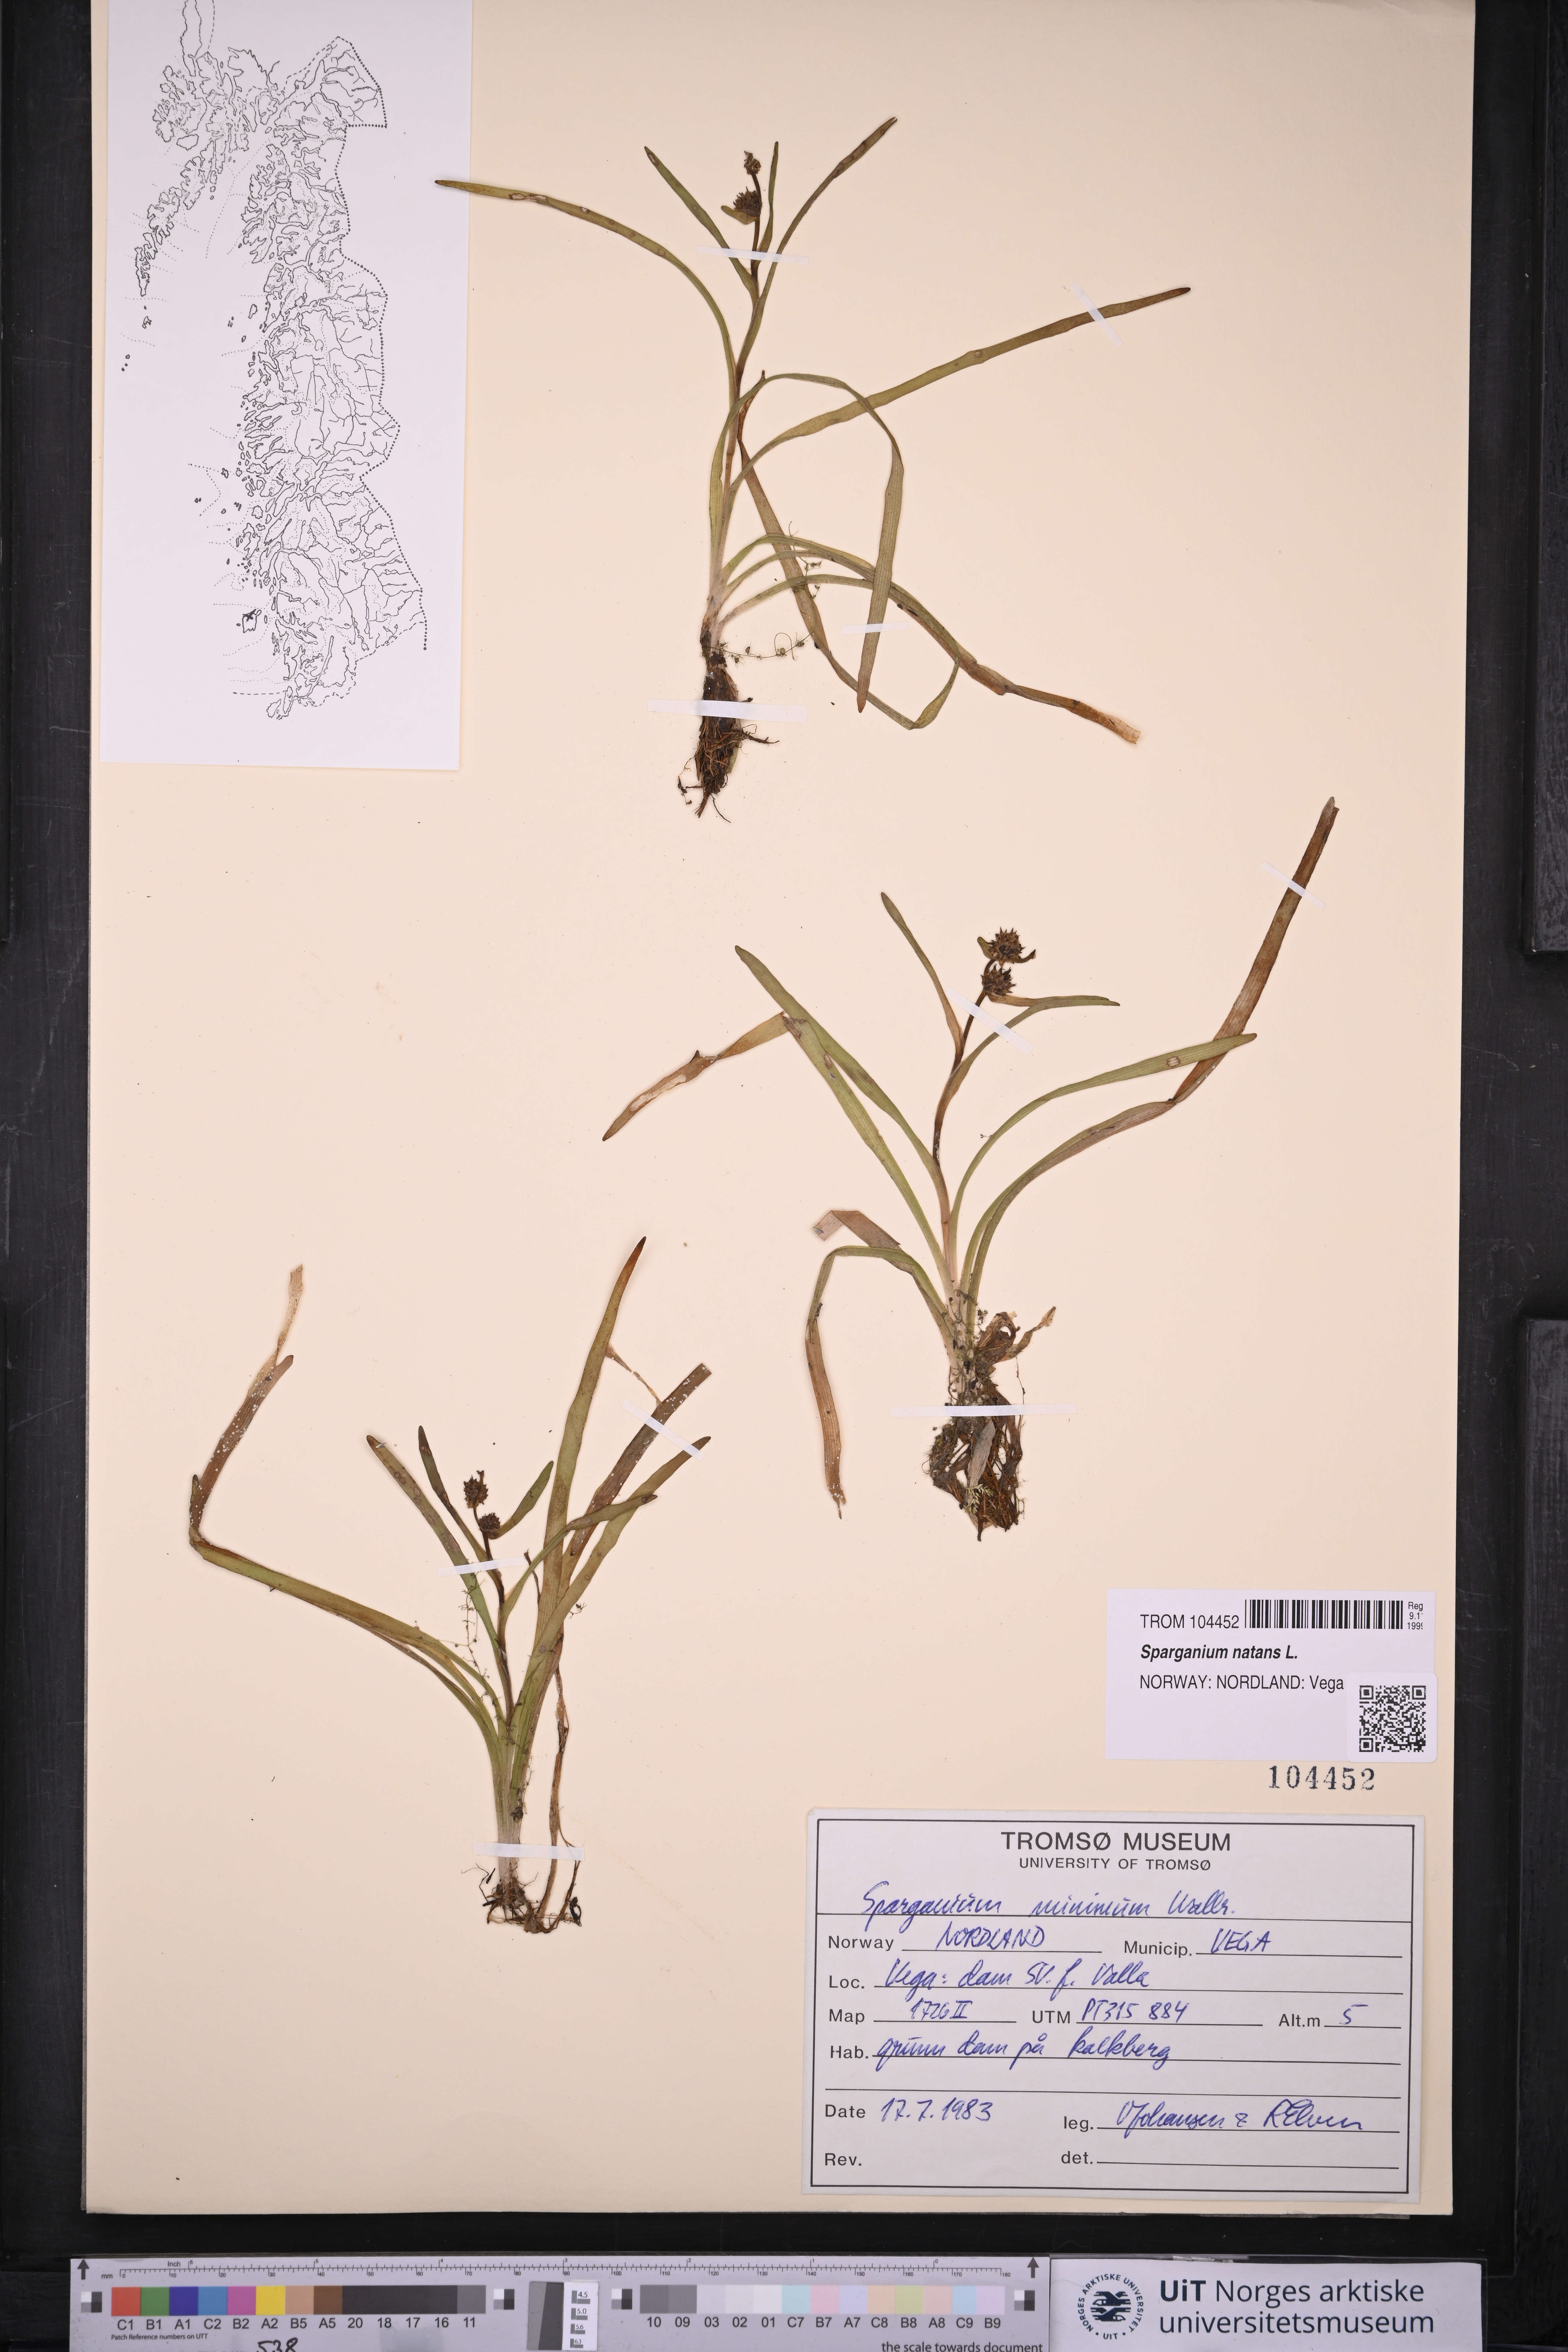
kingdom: Plantae
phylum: Tracheophyta
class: Liliopsida
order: Poales
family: Typhaceae
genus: Sparganium
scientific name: Sparganium natans
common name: Least bur-reed
